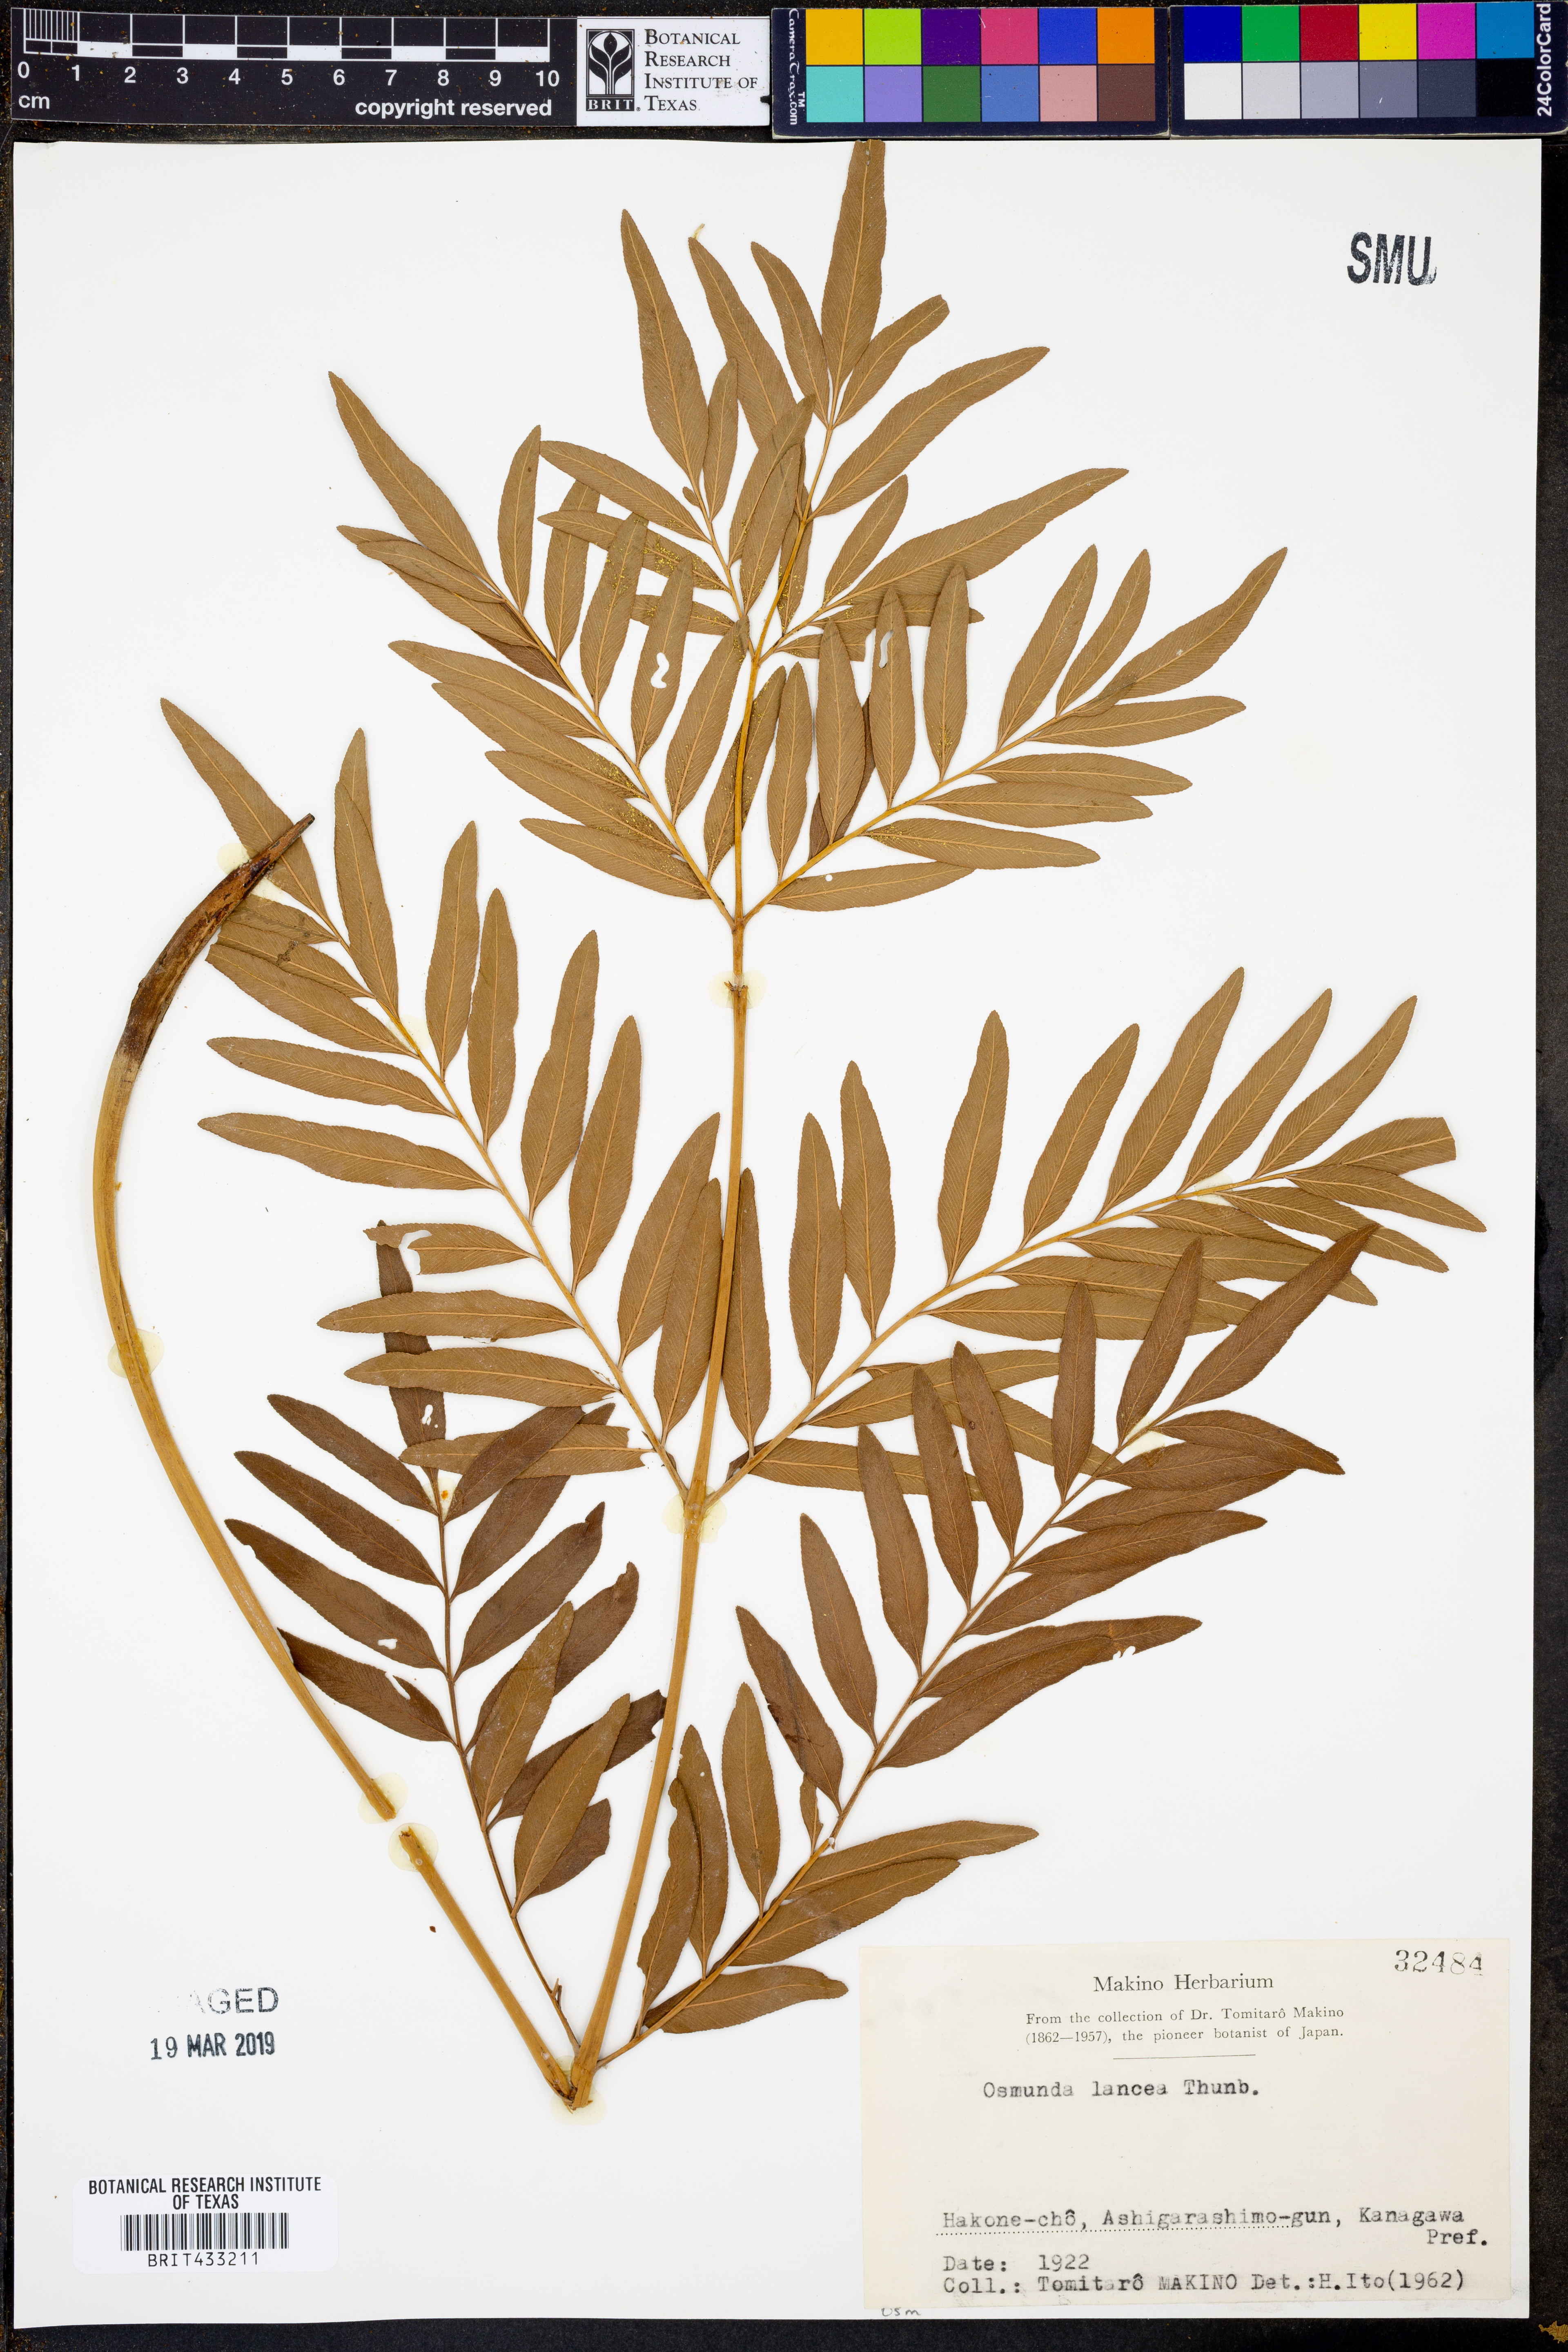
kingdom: Plantae
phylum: Tracheophyta
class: Polypodiopsida
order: Osmundales
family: Osmundaceae
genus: Osmunda
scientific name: Osmunda lancea
